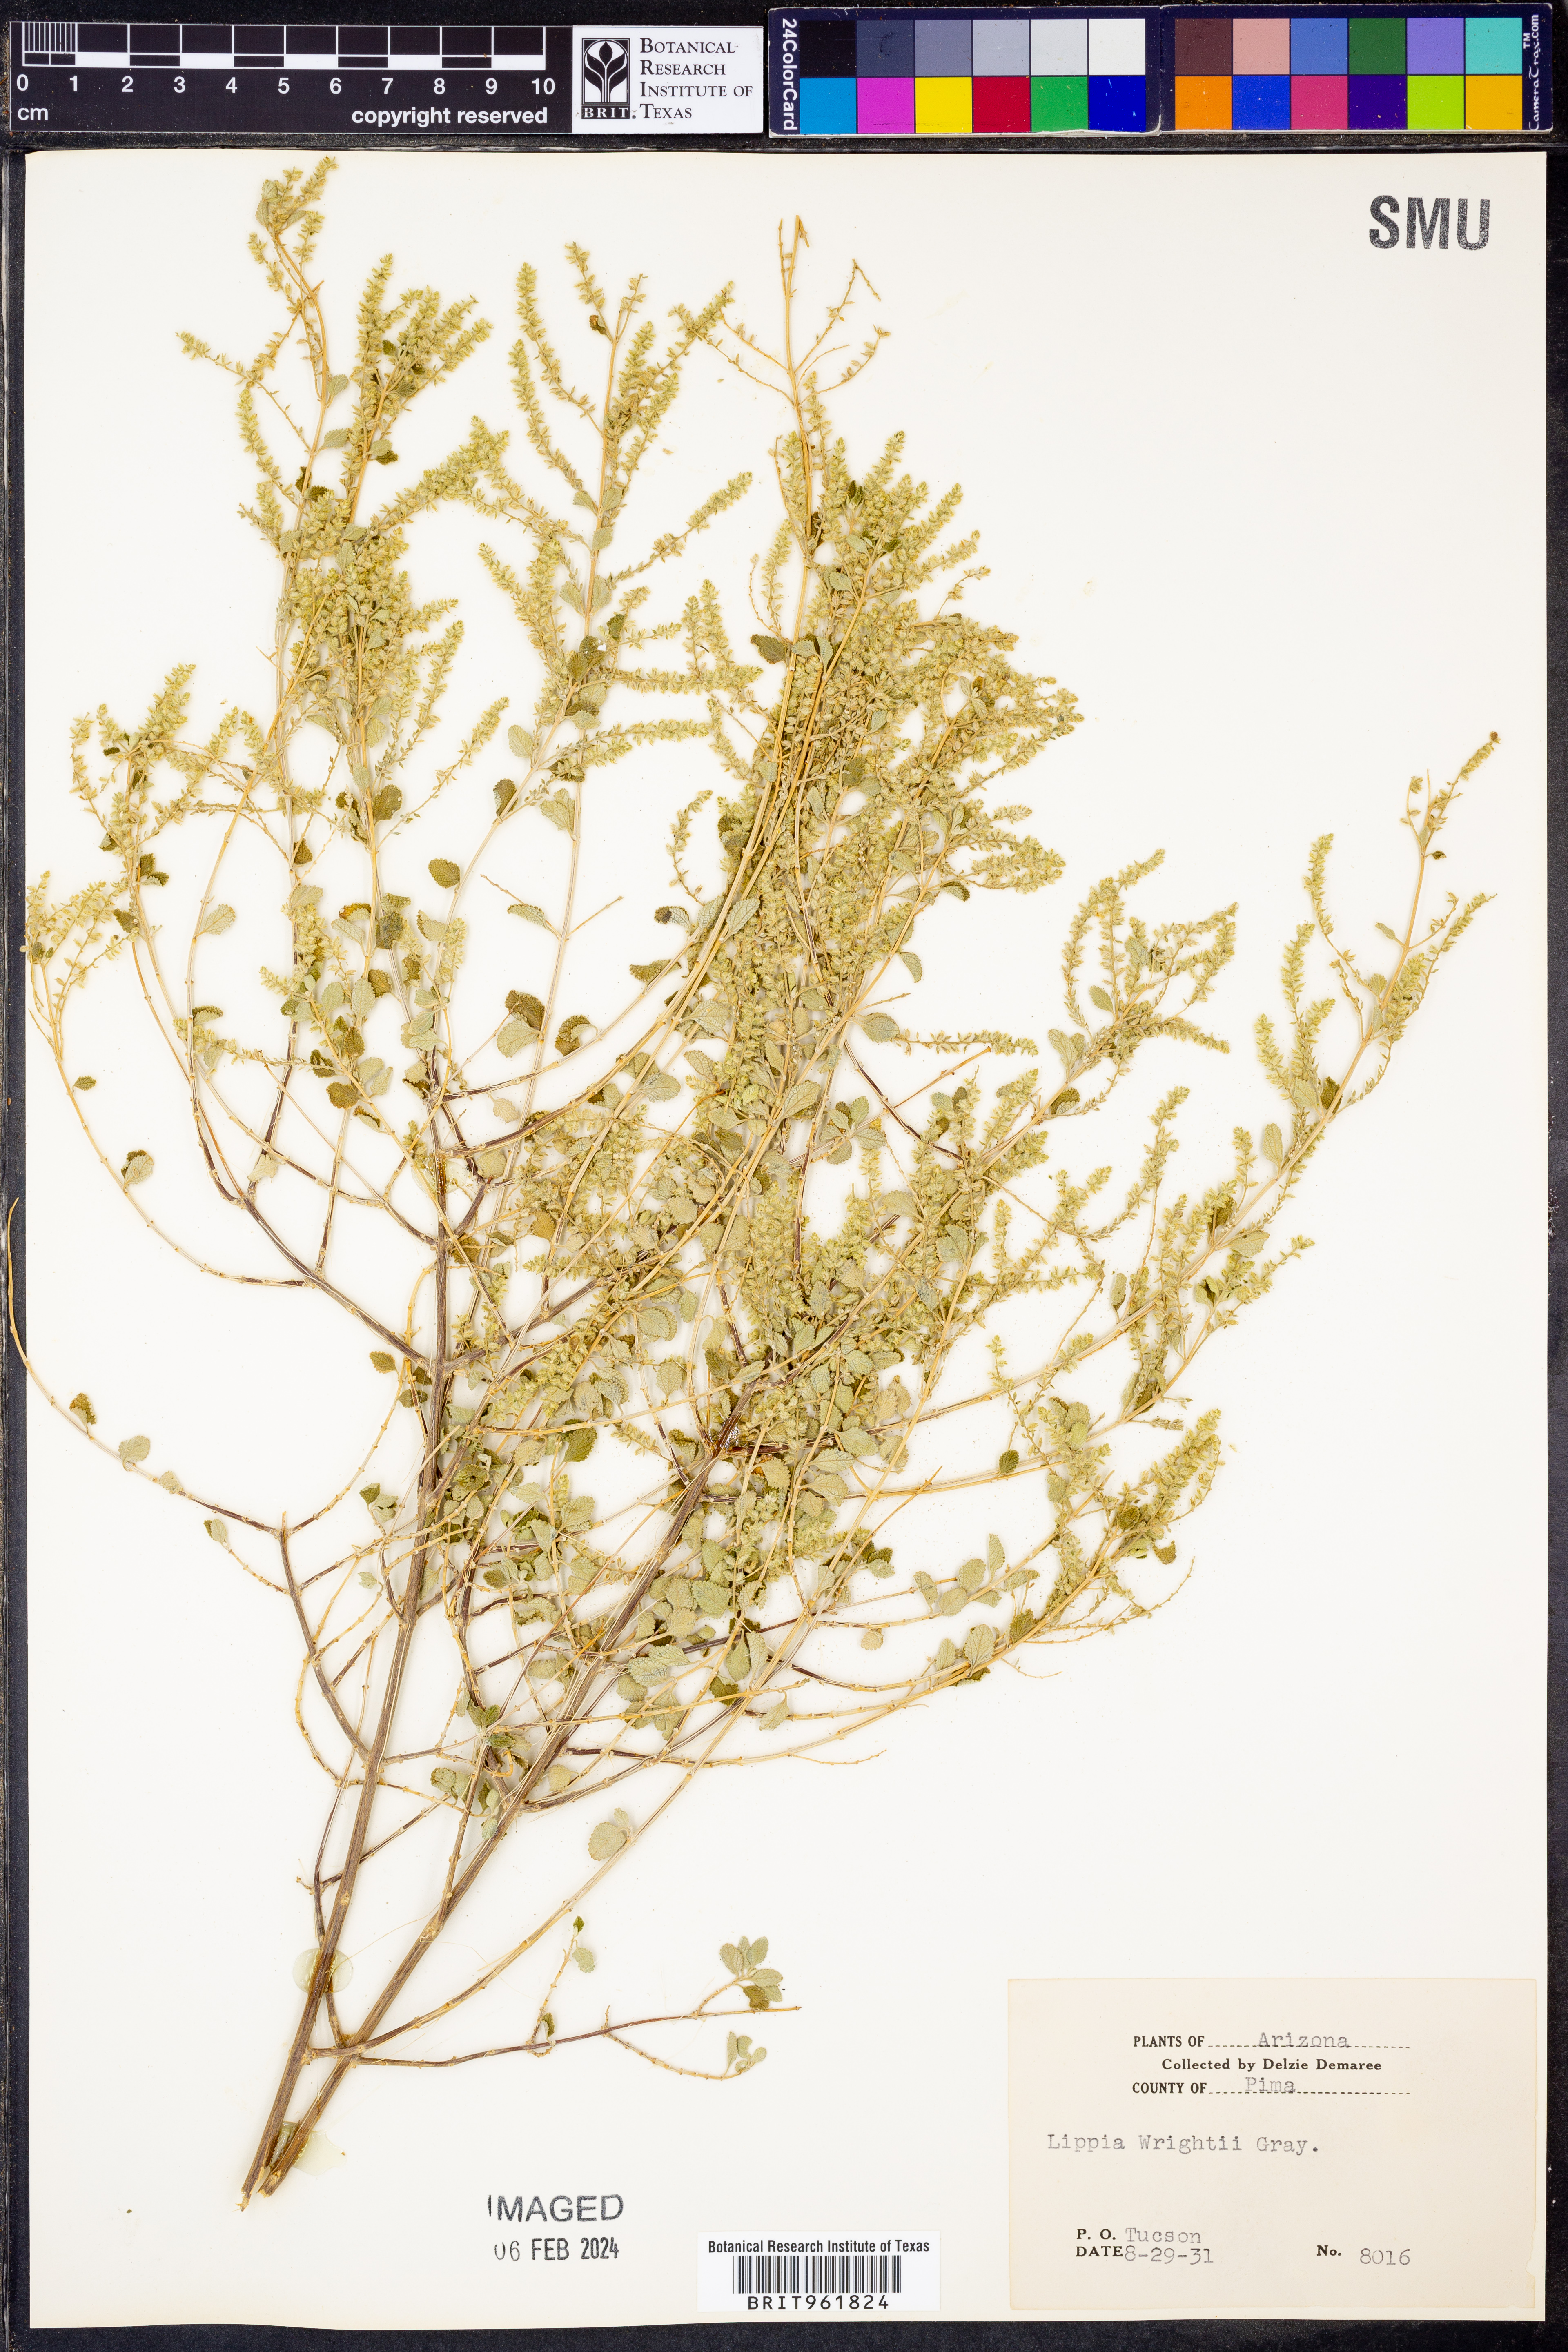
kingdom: Plantae
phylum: Tracheophyta
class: Magnoliopsida
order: Lamiales
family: Verbenaceae
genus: Aloysia
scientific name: Aloysia wrightii
